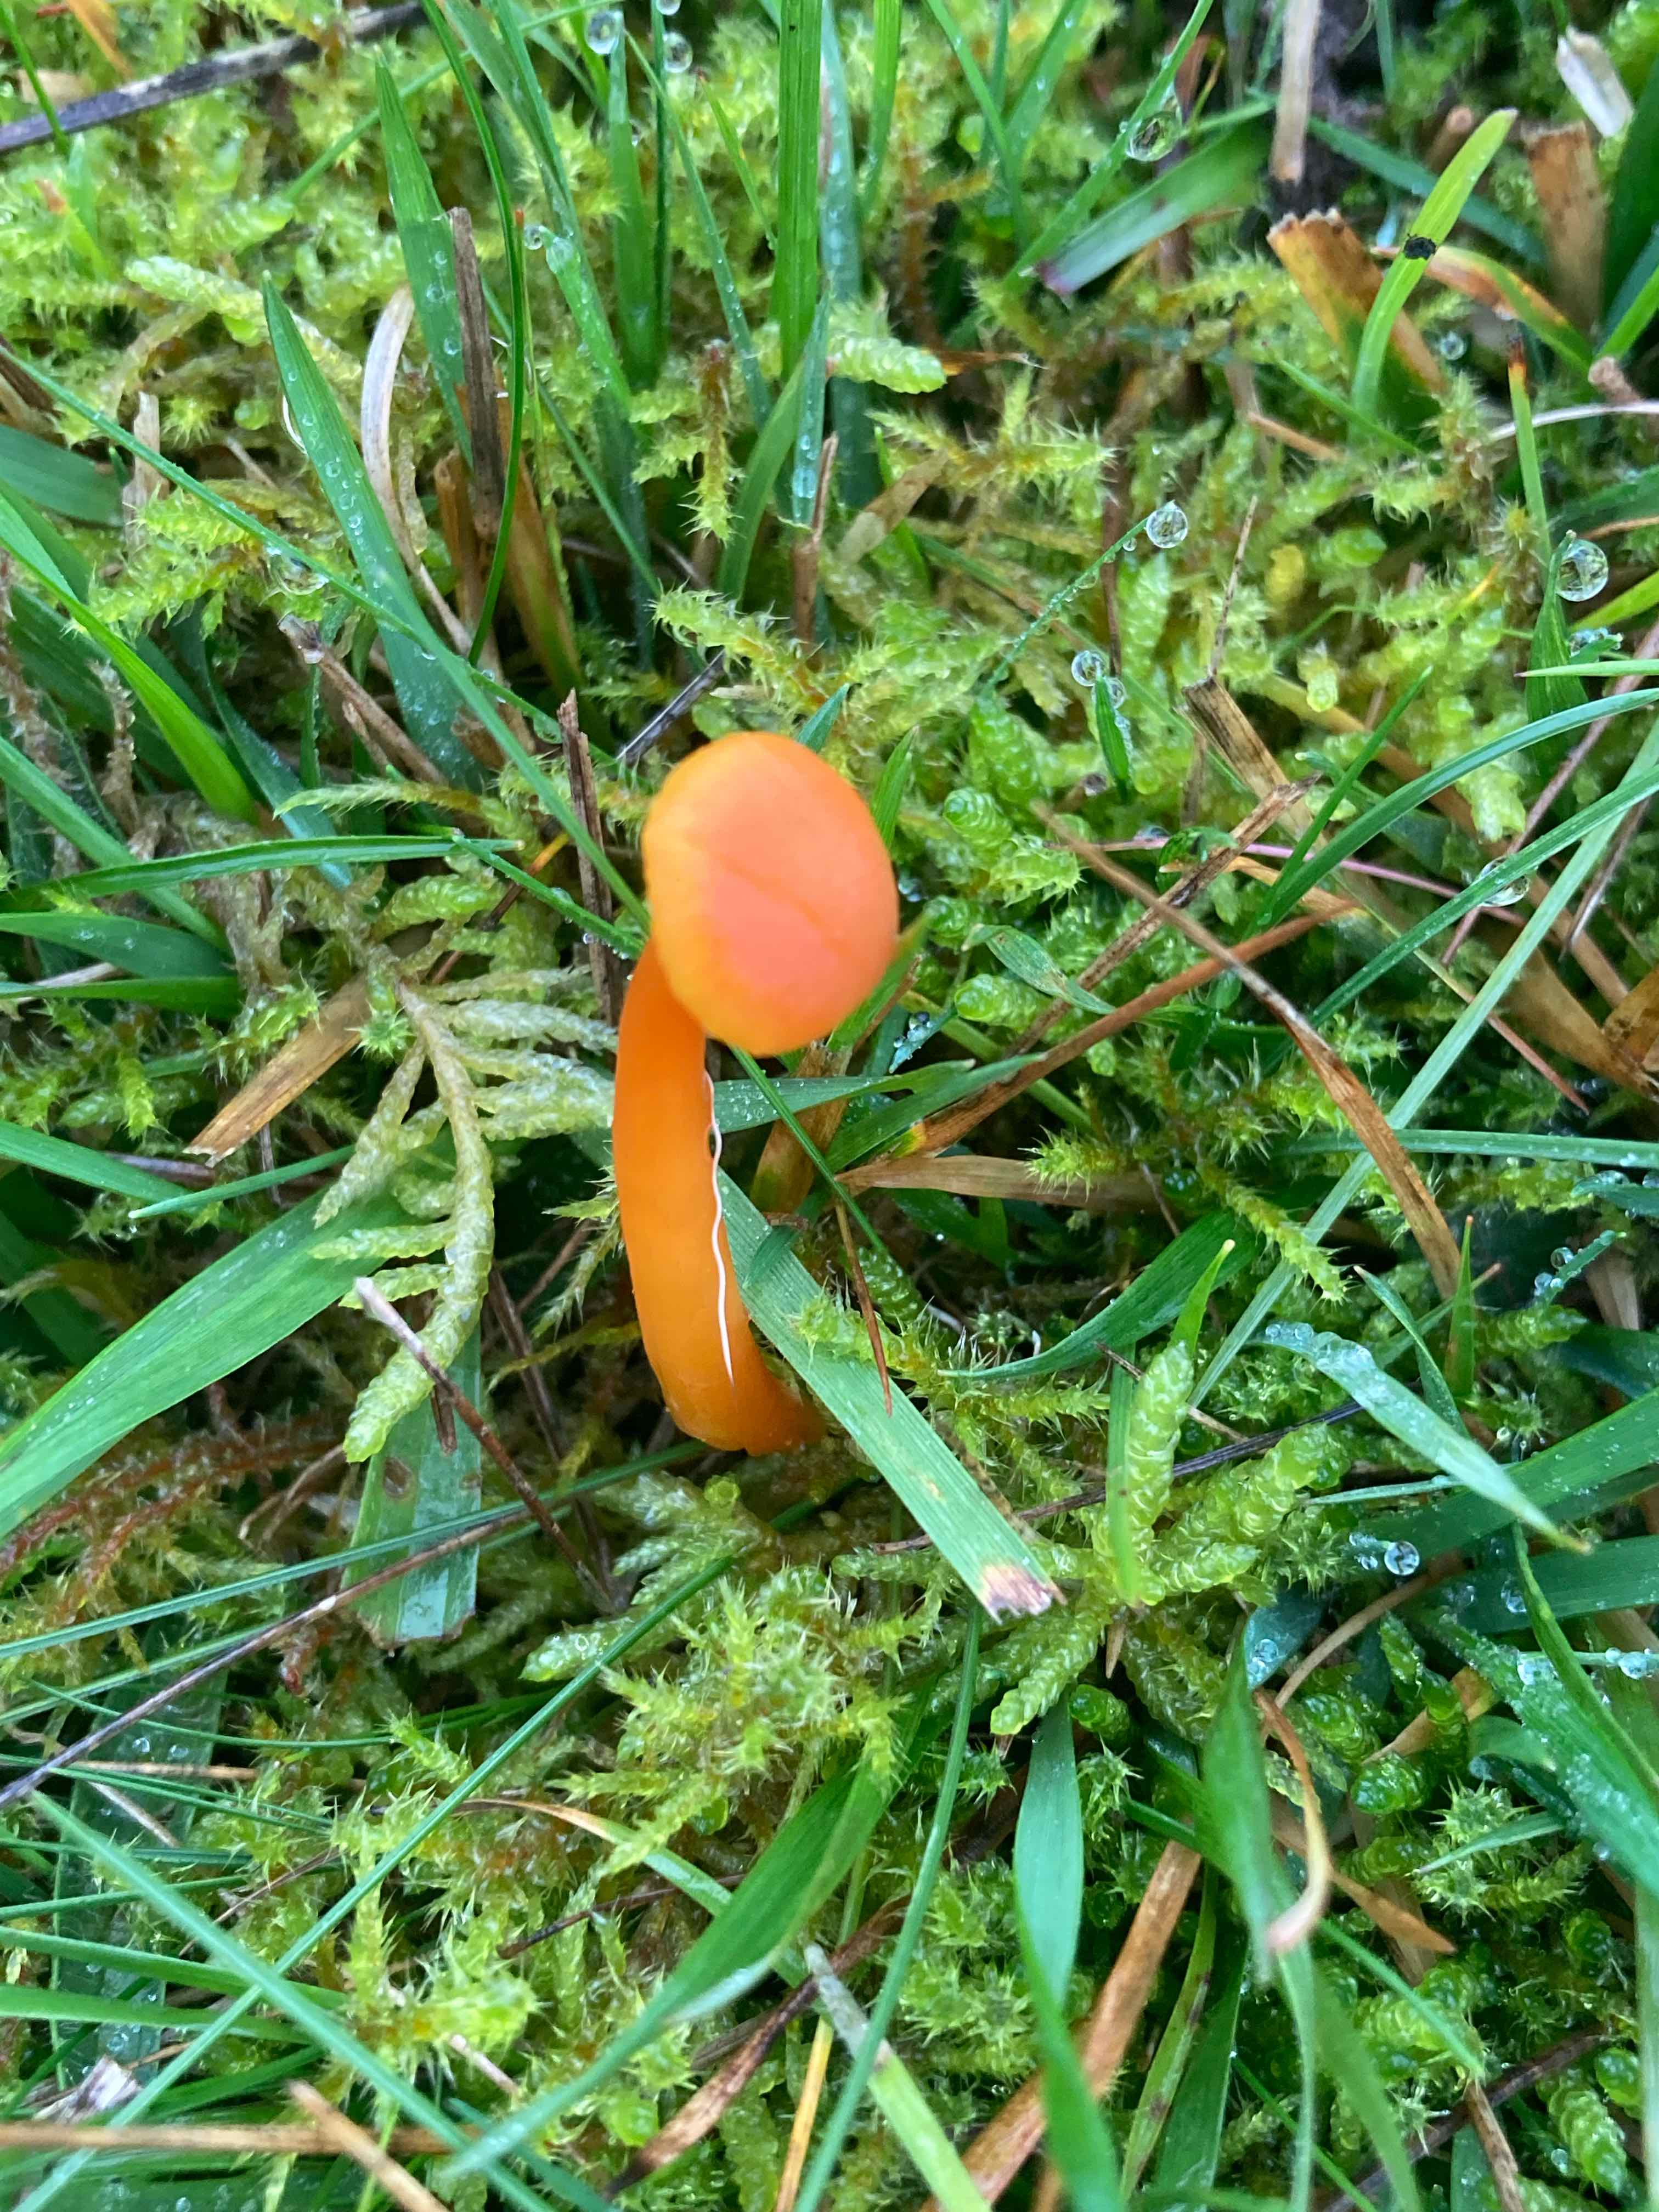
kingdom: Fungi
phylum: Basidiomycota
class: Agaricomycetes
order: Agaricales
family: Hygrophoraceae
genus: Hygrocybe
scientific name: Hygrocybe reidii
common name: honning-vokshat
